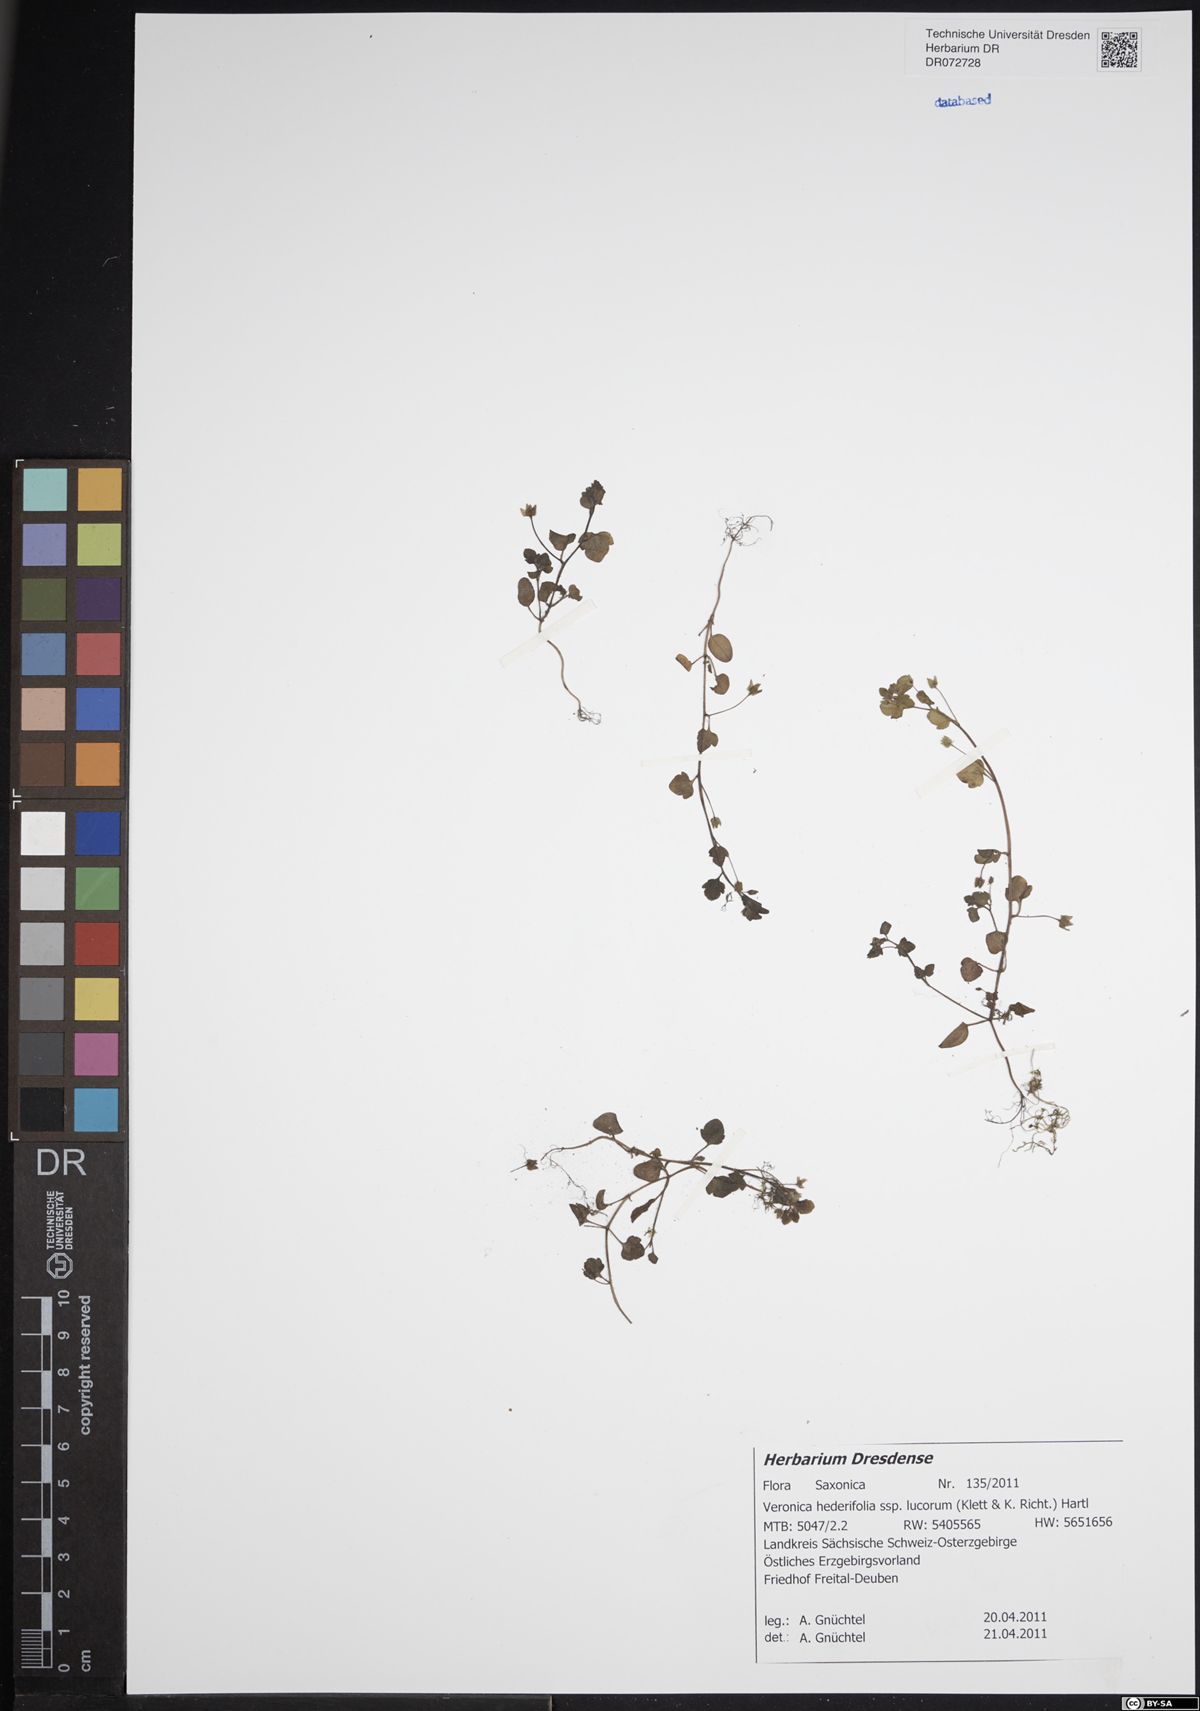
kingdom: Plantae
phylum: Tracheophyta
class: Magnoliopsida
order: Lamiales
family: Plantaginaceae
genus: Veronica
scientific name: Veronica hederifolia
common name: Ivy-leaved speedwell
